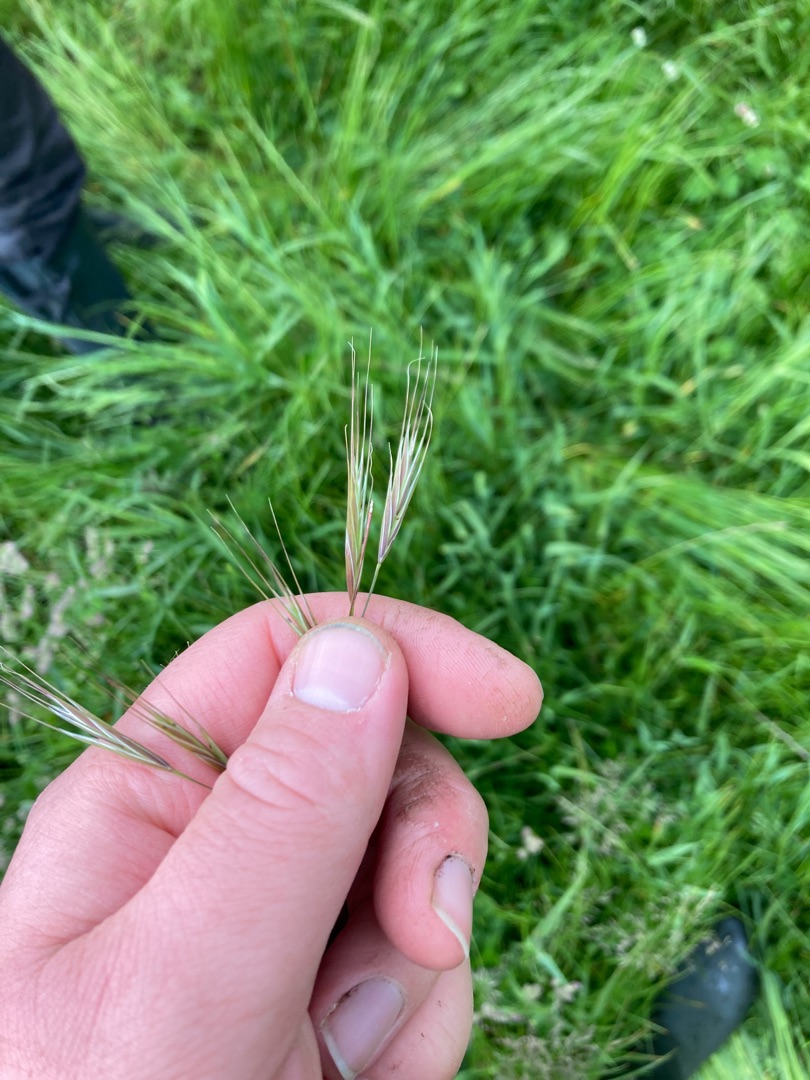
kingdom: Plantae
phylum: Tracheophyta
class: Liliopsida
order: Poales
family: Poaceae
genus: Bromus
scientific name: Bromus sterilis
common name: Gold hejre
